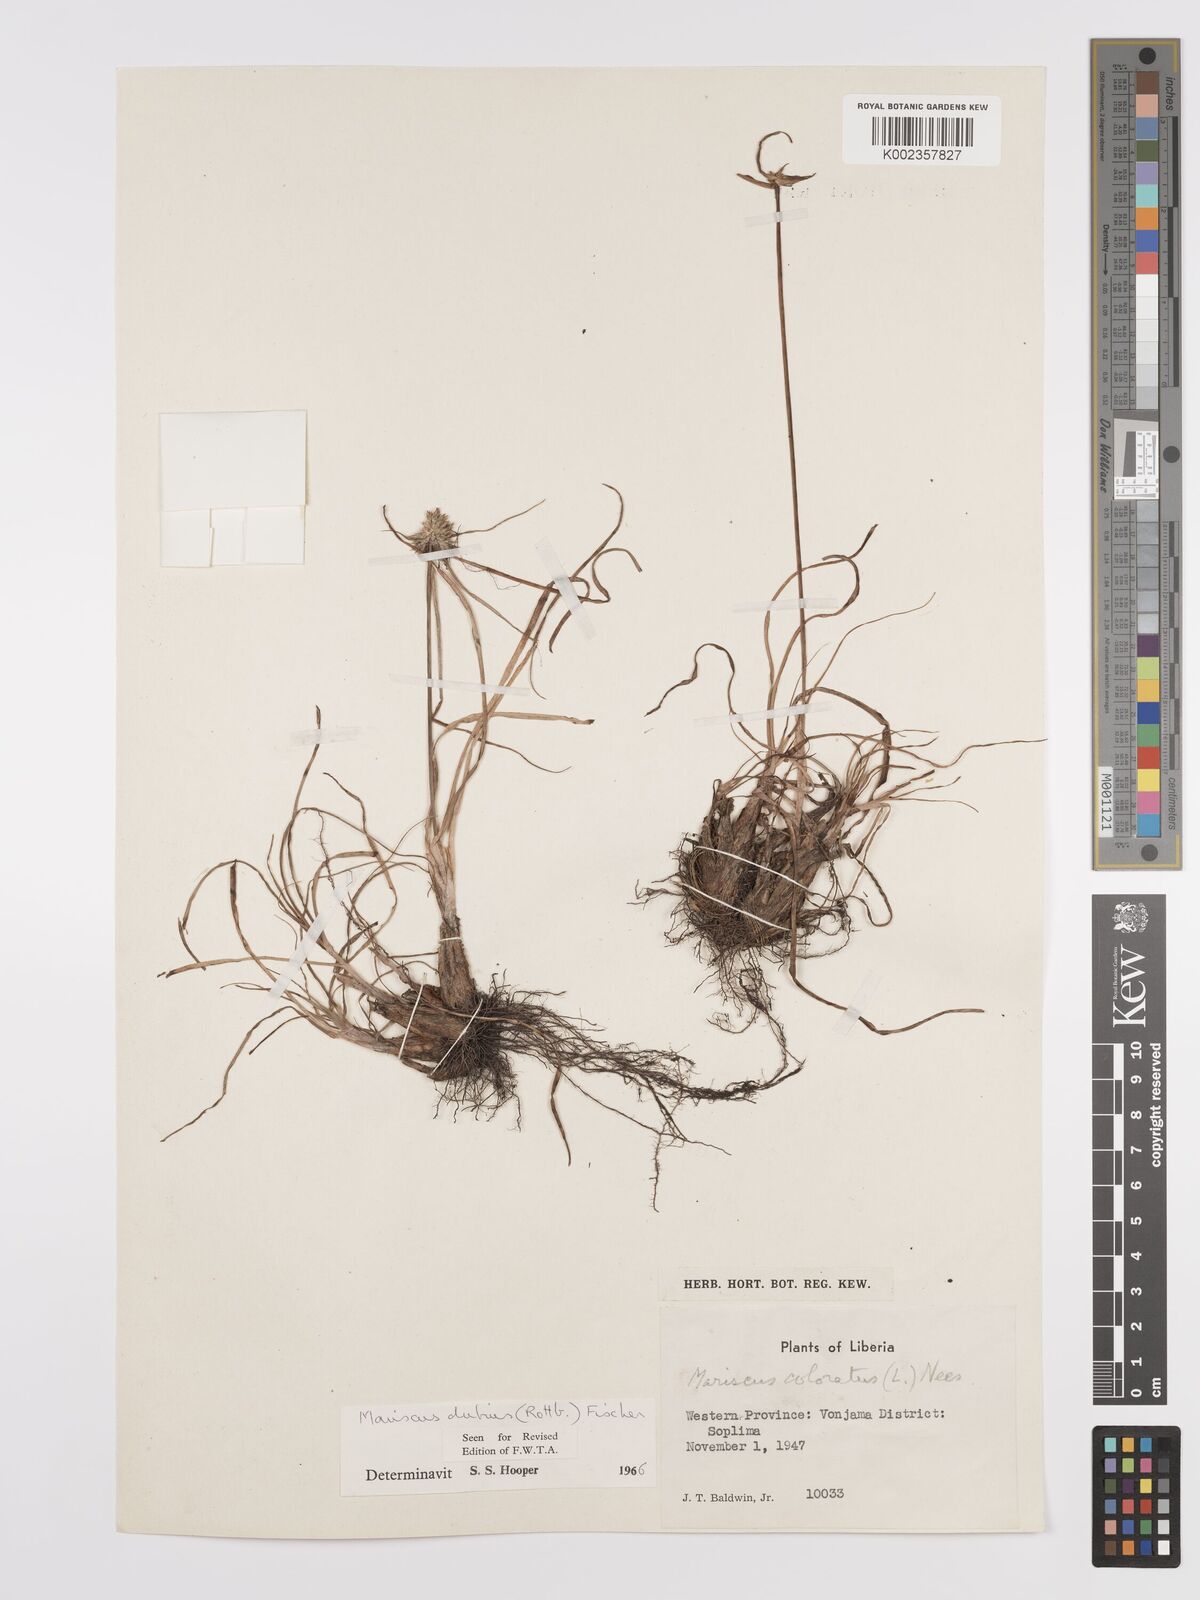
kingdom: Plantae
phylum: Tracheophyta
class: Liliopsida
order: Poales
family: Cyperaceae
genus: Cyperus
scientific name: Cyperus dubius
